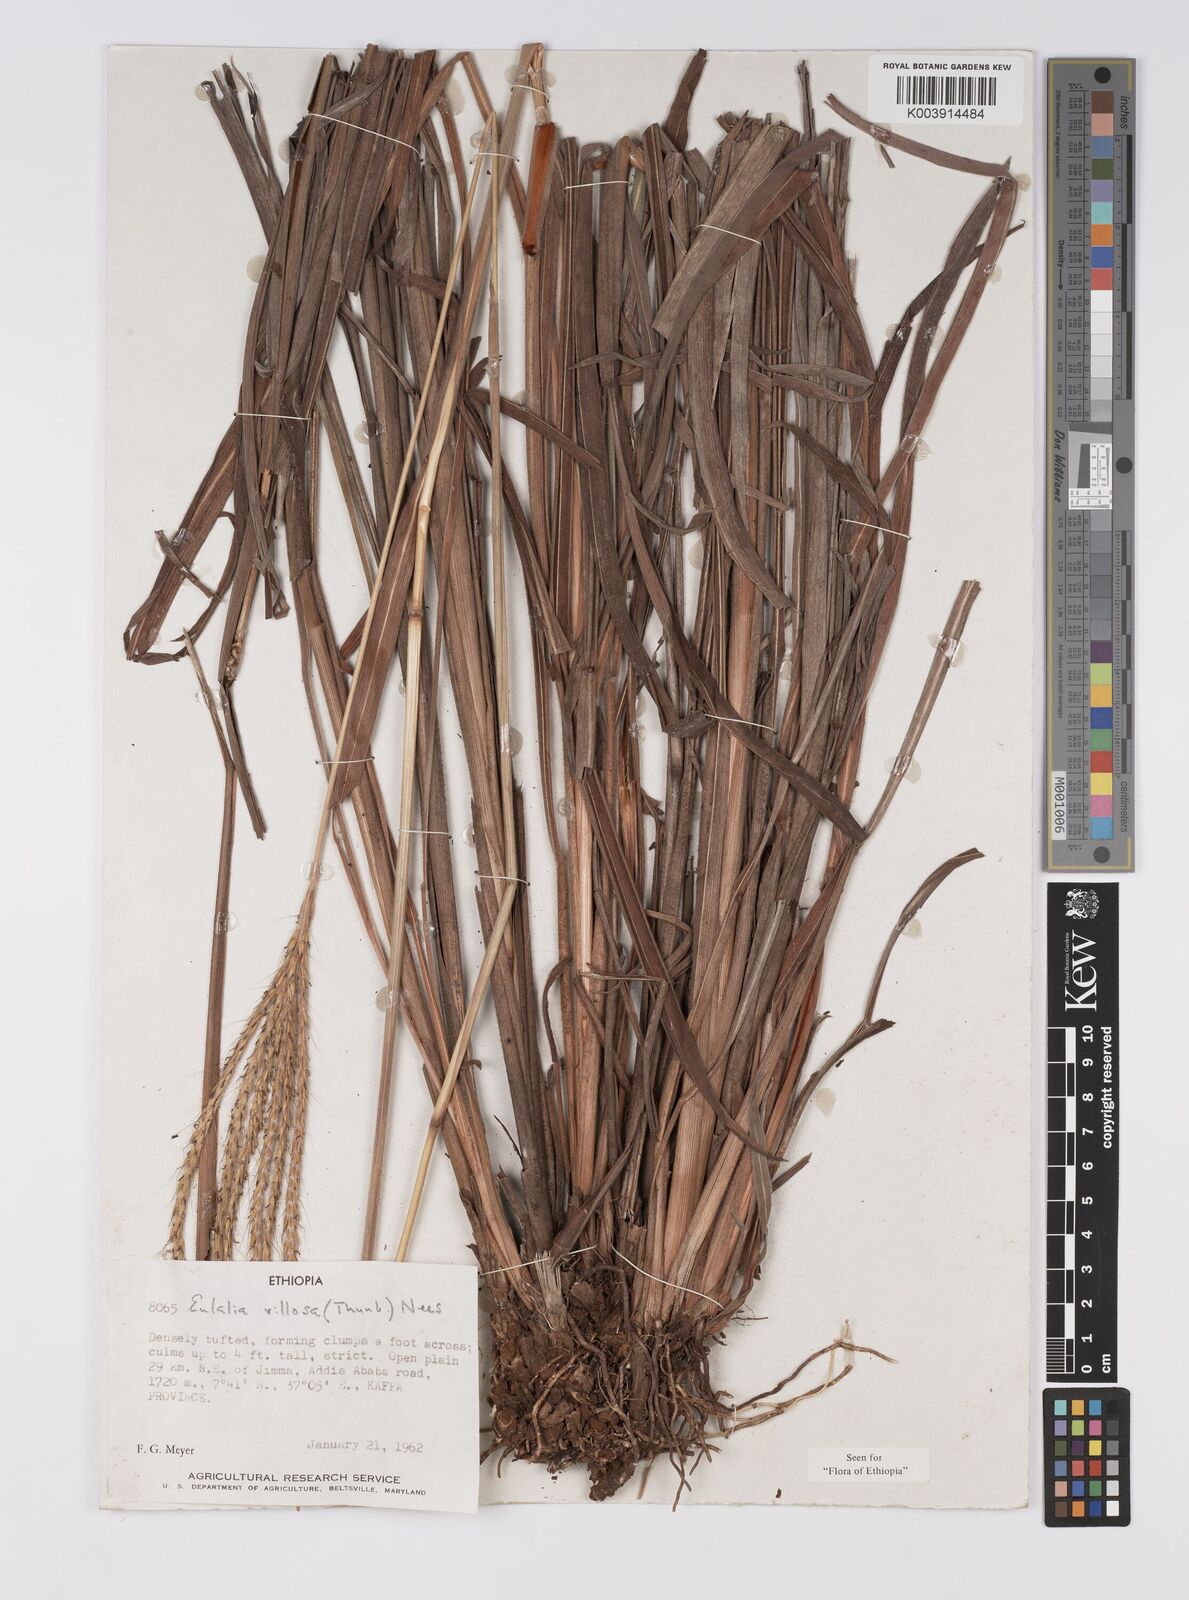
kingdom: Plantae
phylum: Tracheophyta
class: Liliopsida
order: Poales
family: Poaceae
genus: Eulalia
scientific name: Eulalia villosa
